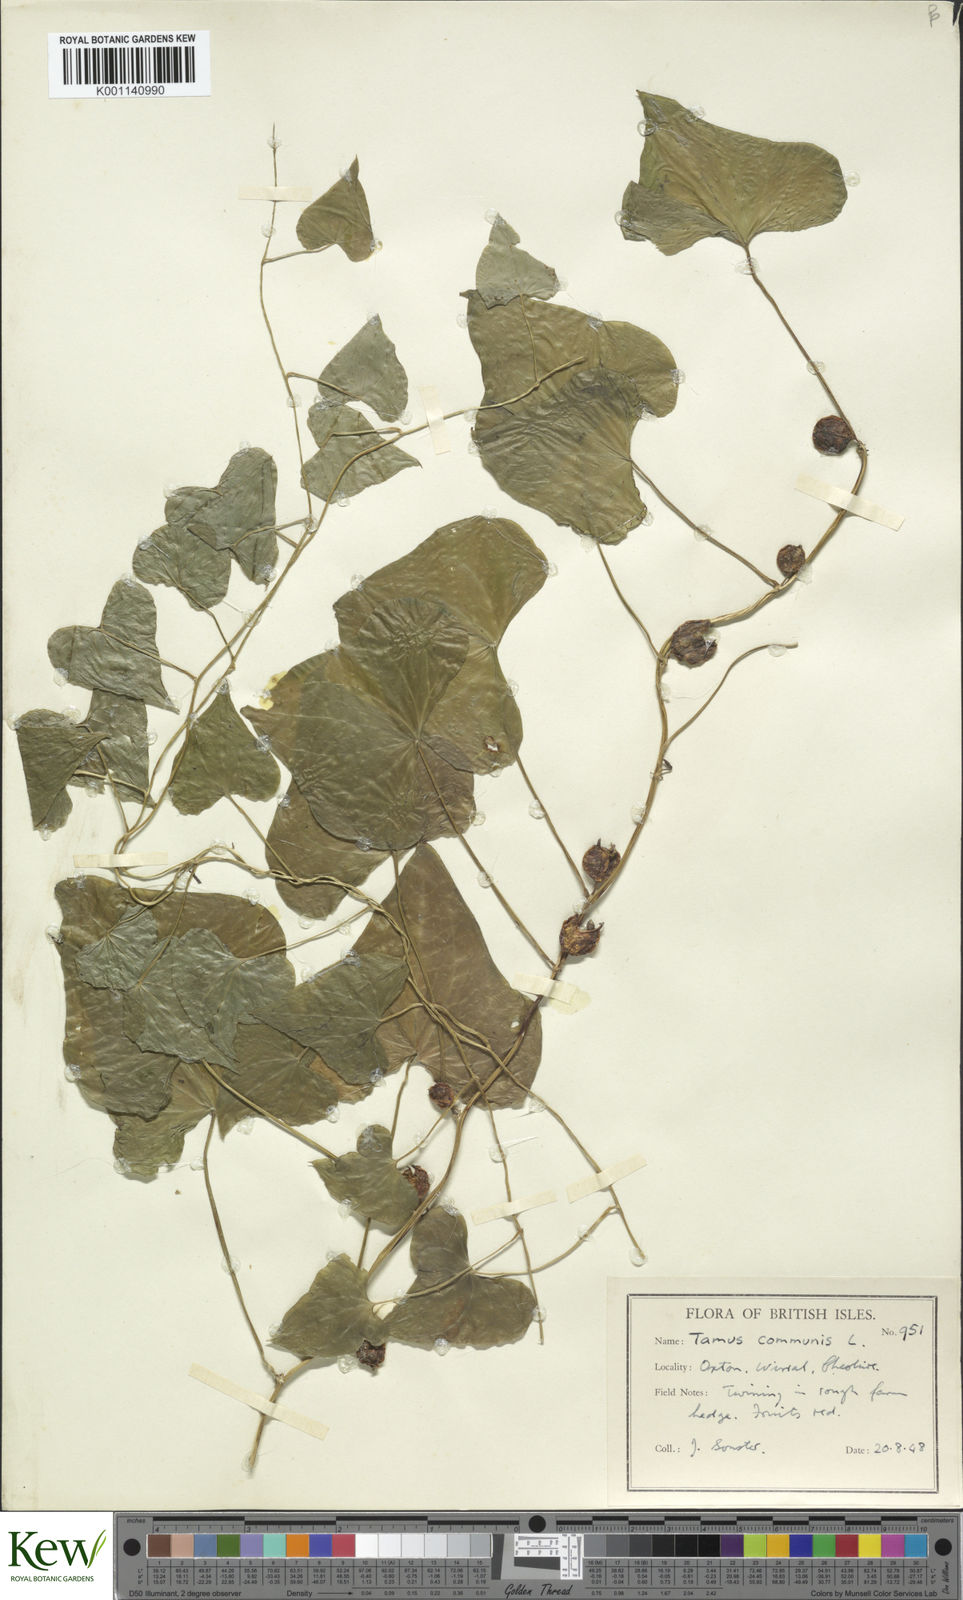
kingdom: Plantae
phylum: Tracheophyta
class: Liliopsida
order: Dioscoreales
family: Dioscoreaceae
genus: Dioscorea
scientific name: Dioscorea communis
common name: Black-bindweed
